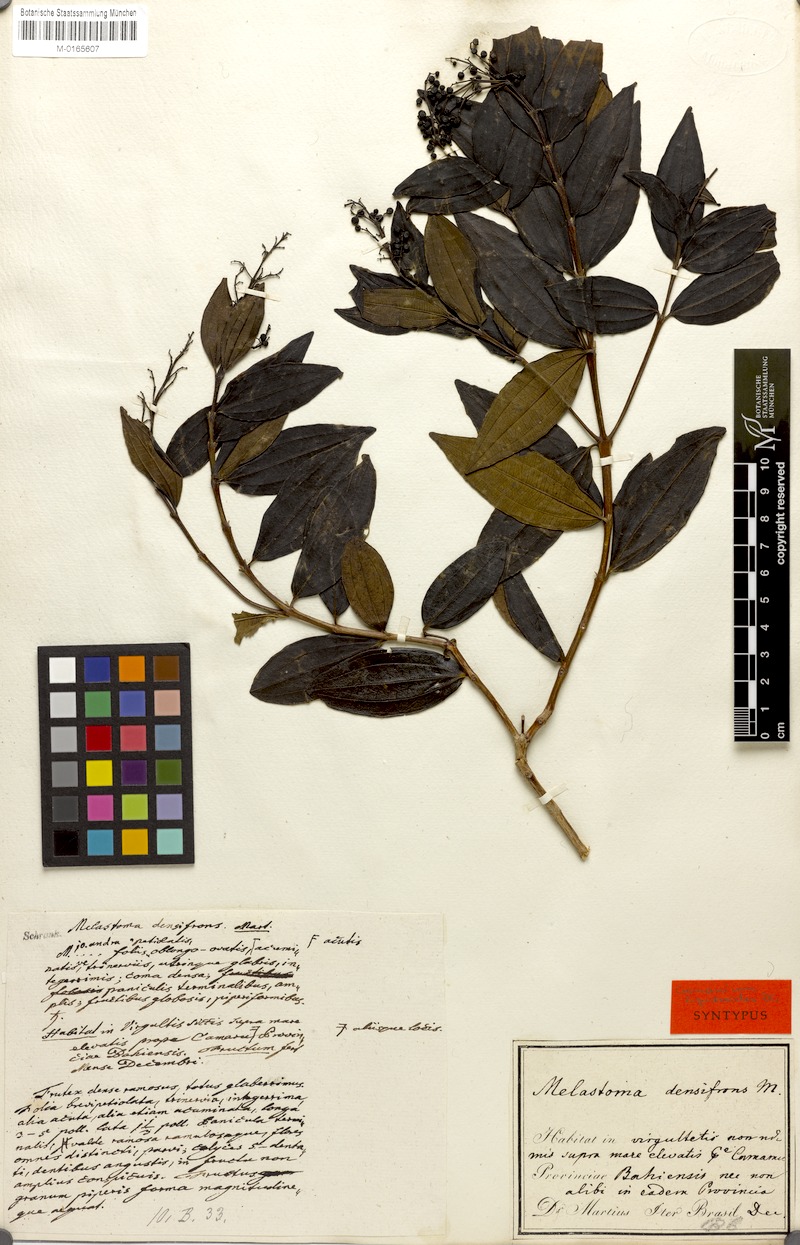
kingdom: Plantae
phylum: Tracheophyta
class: Magnoliopsida
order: Myrtales
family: Melastomataceae
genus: Miconia
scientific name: Miconia ligustroides
